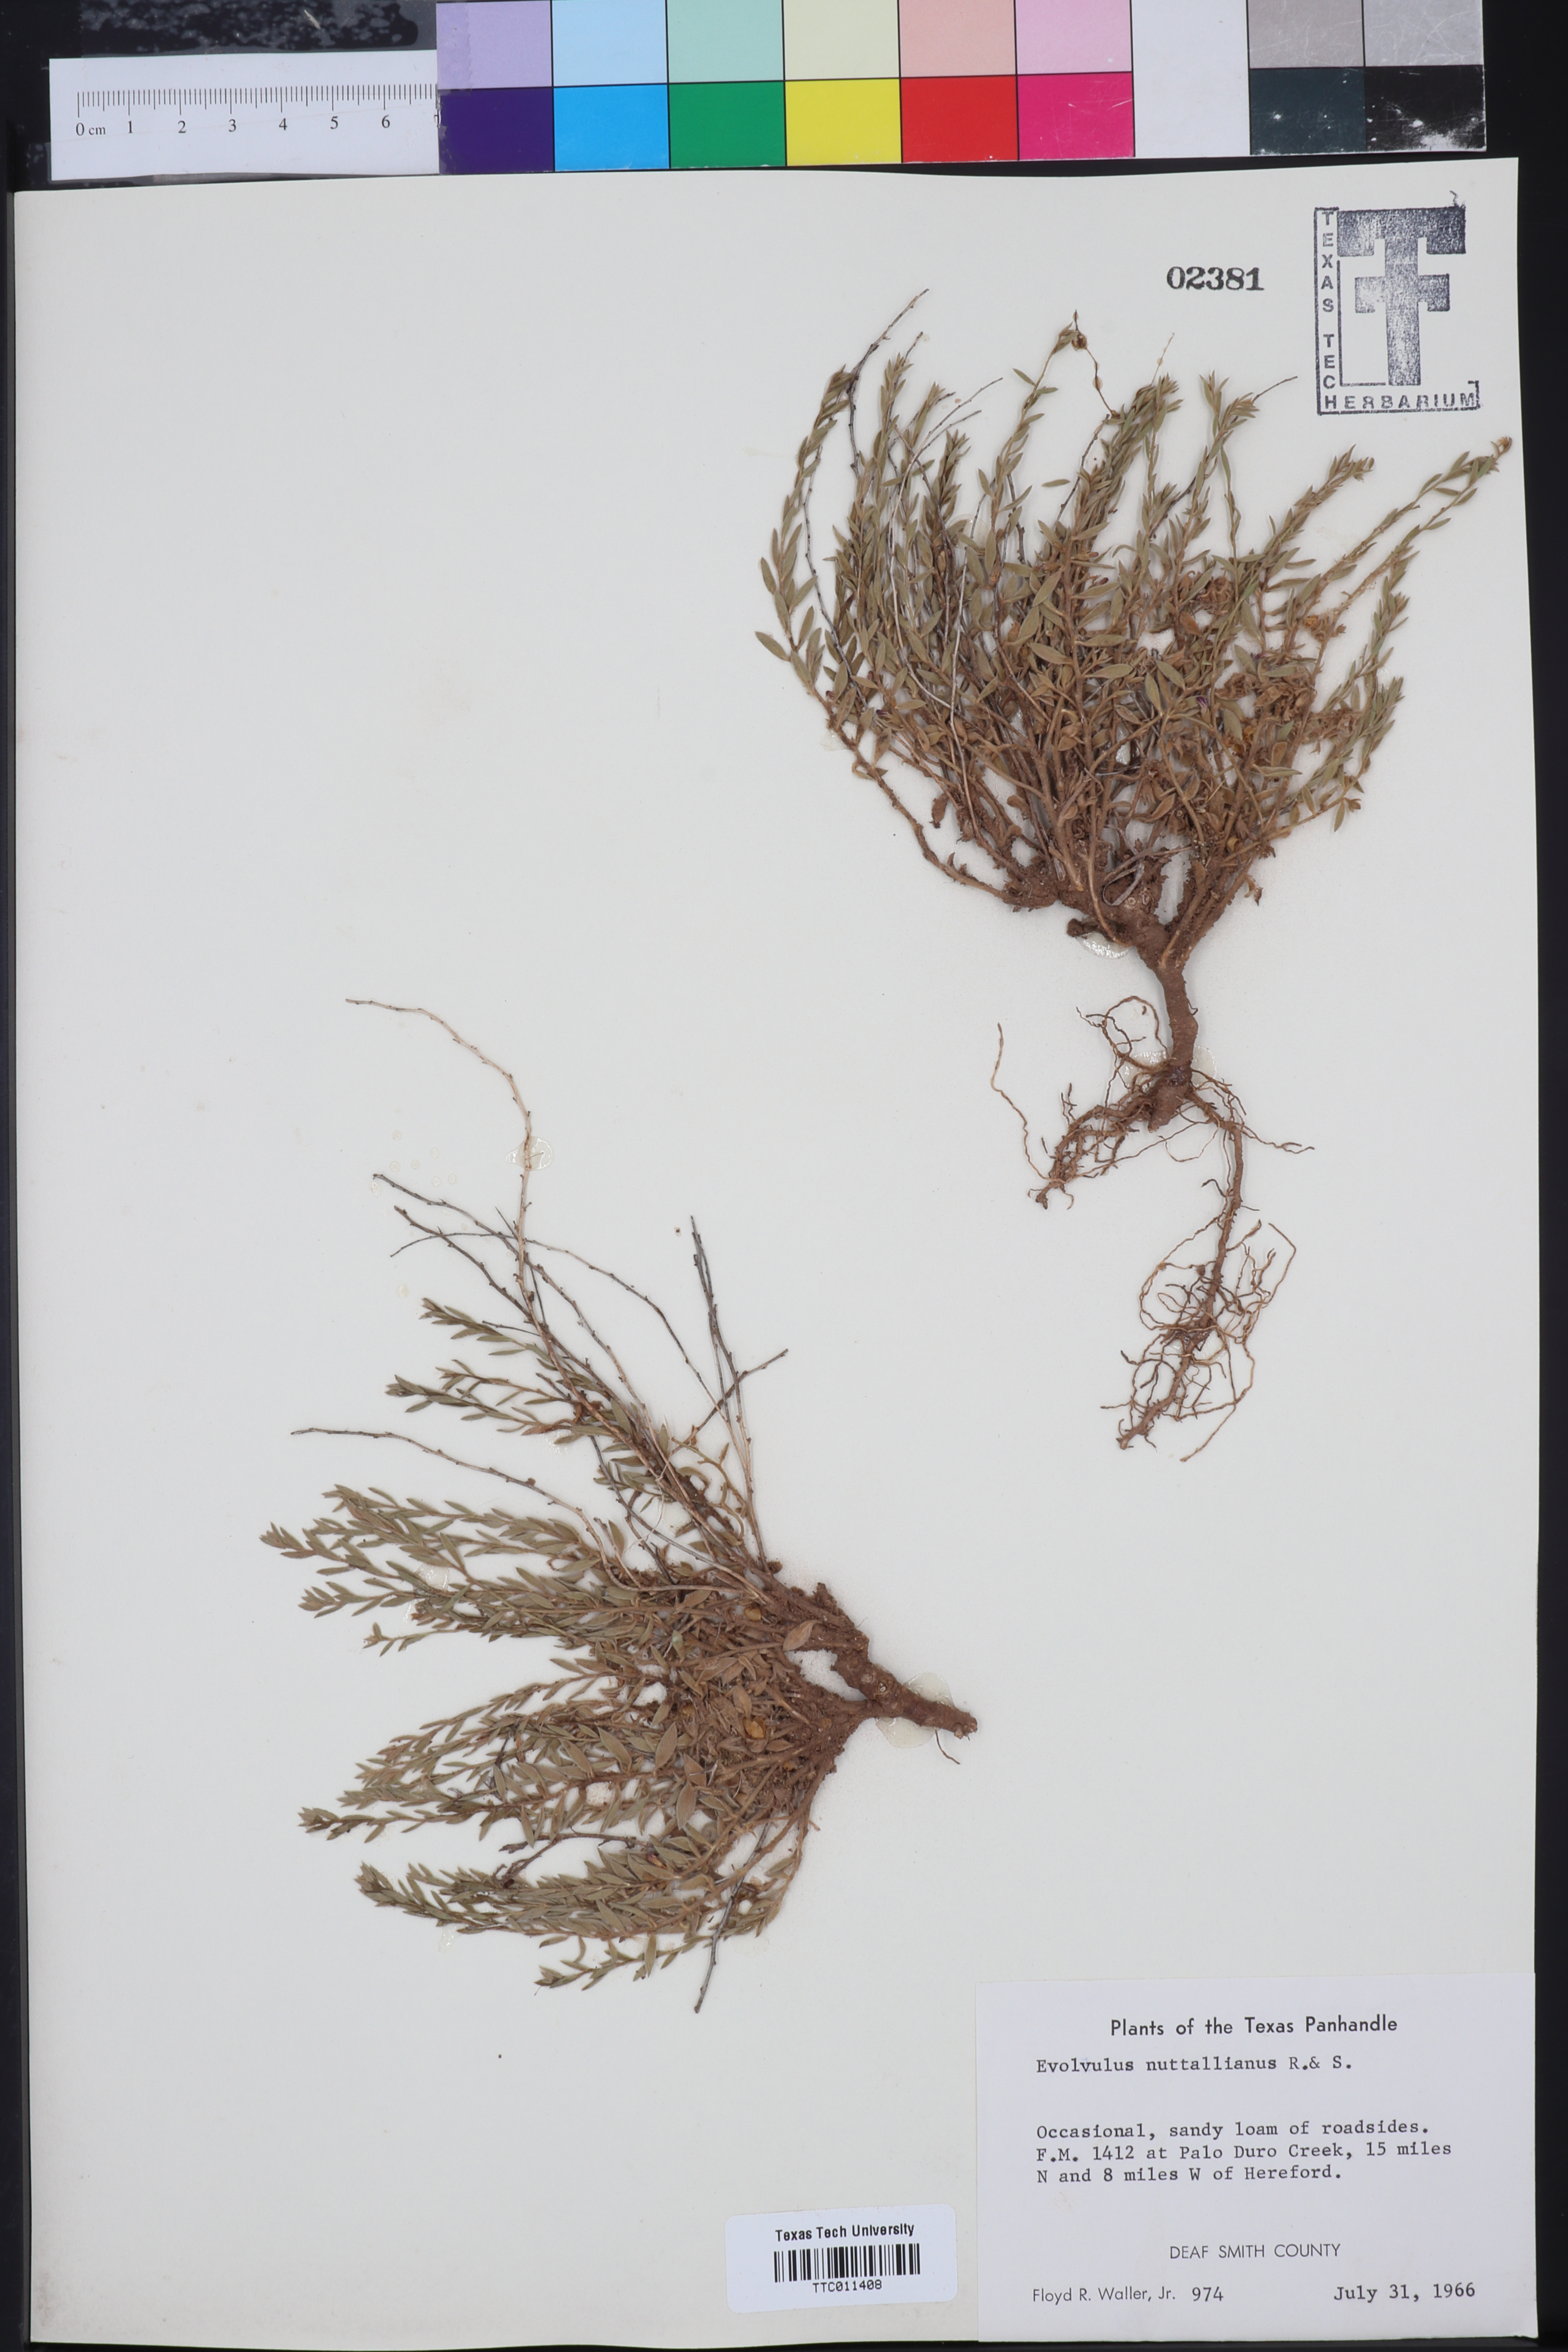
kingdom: Plantae
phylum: Tracheophyta
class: Magnoliopsida
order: Solanales
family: Convolvulaceae
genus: Evolvulus
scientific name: Evolvulus nuttallianus
